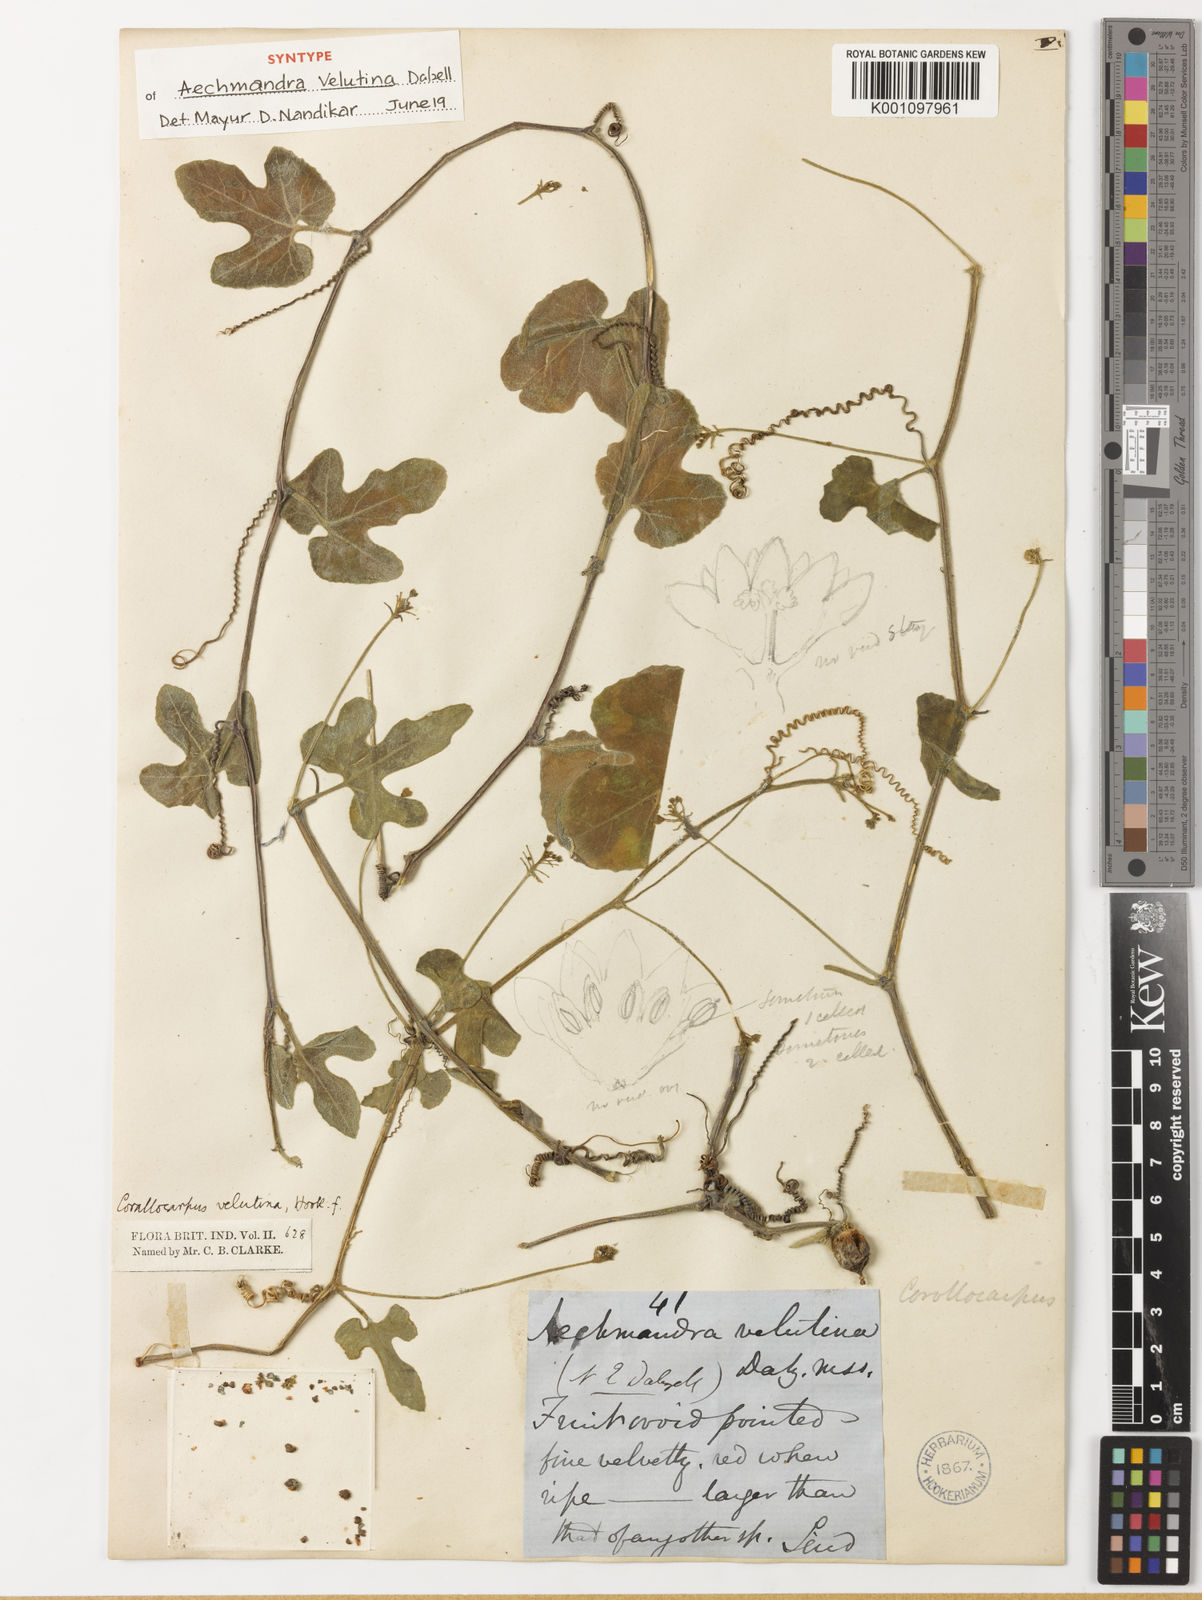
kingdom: Plantae
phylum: Tracheophyta
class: Magnoliopsida
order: Cucurbitales
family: Cucurbitaceae
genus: Corallocarpus
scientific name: Corallocarpus schimperi
